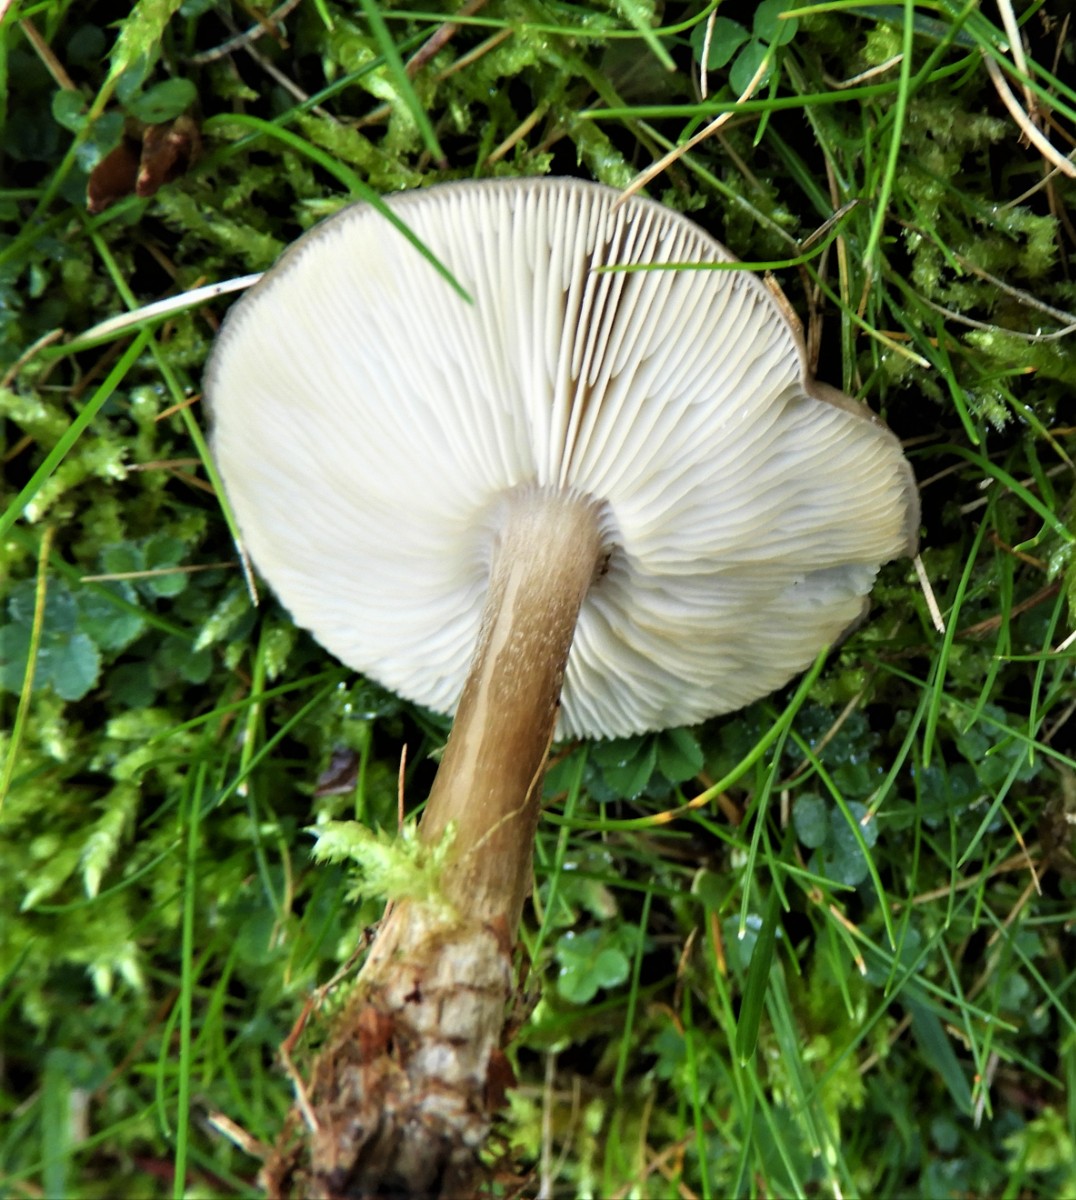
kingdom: Fungi
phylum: Basidiomycota
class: Agaricomycetes
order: Agaricales
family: Tricholomataceae
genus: Melanoleuca
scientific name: Melanoleuca
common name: munkehat
